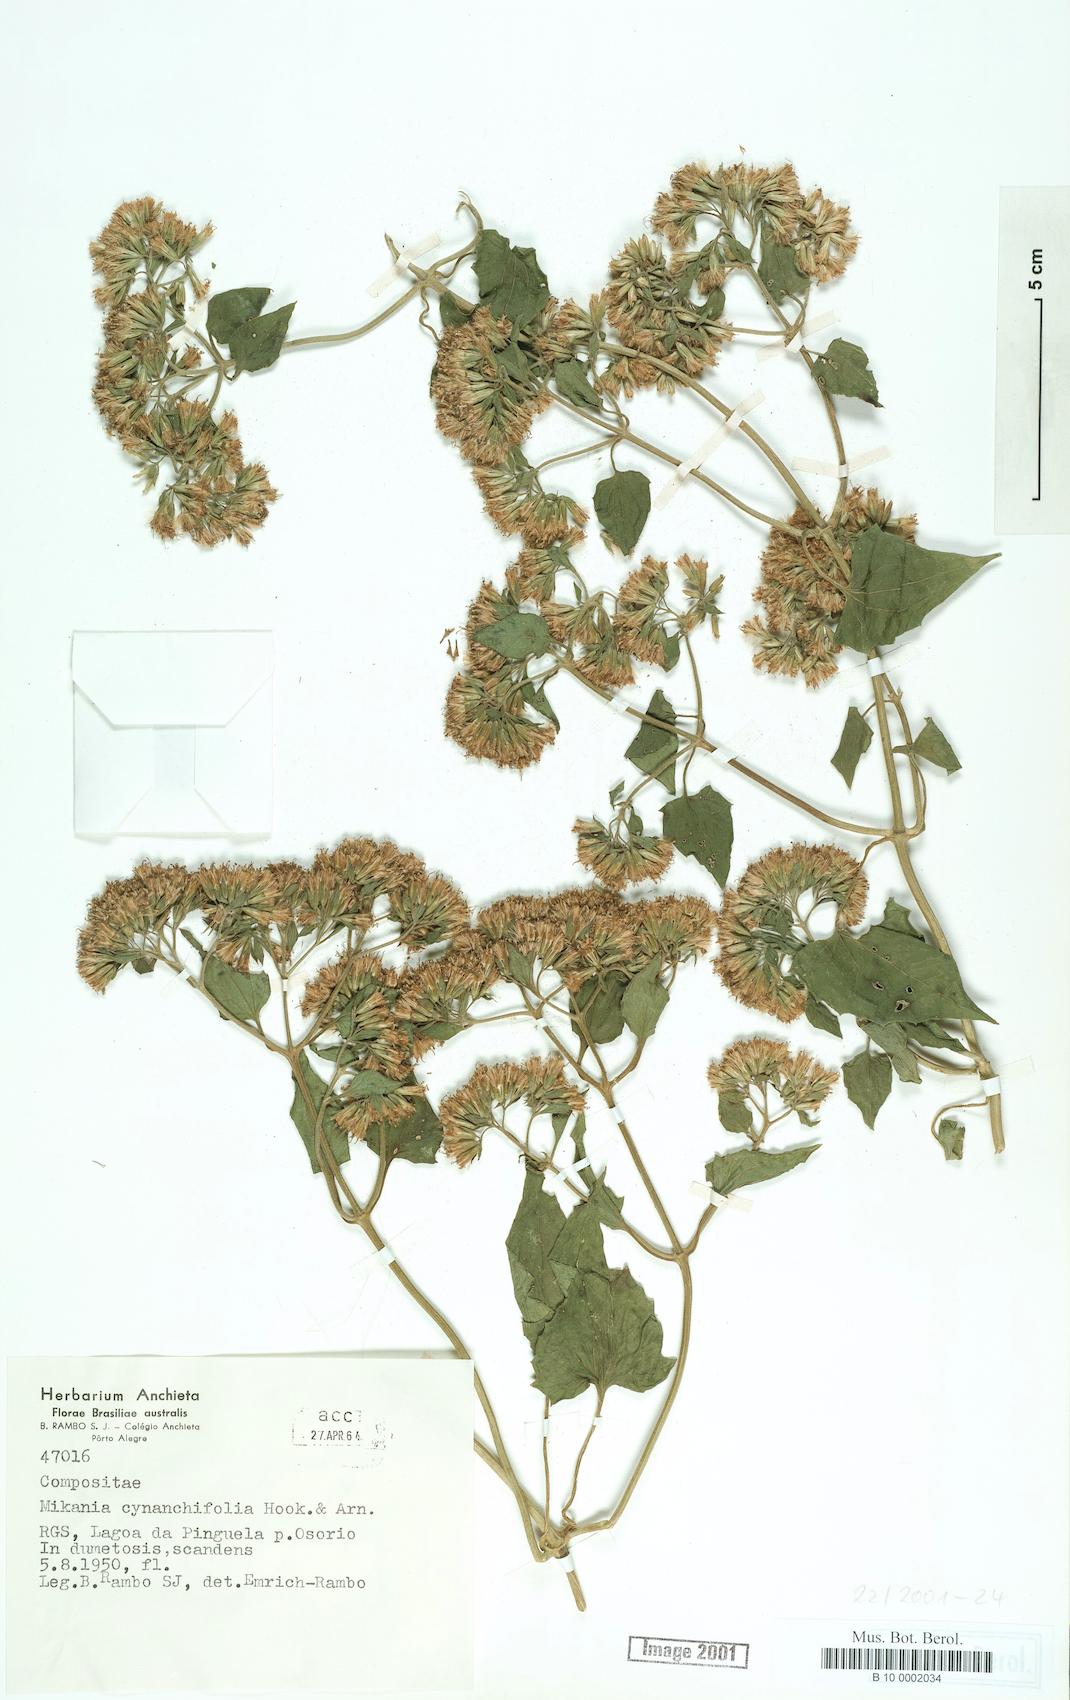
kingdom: Plantae
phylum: Tracheophyta
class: Magnoliopsida
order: Asterales
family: Asteraceae
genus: Mikania
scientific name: Mikania cynanchifolia
